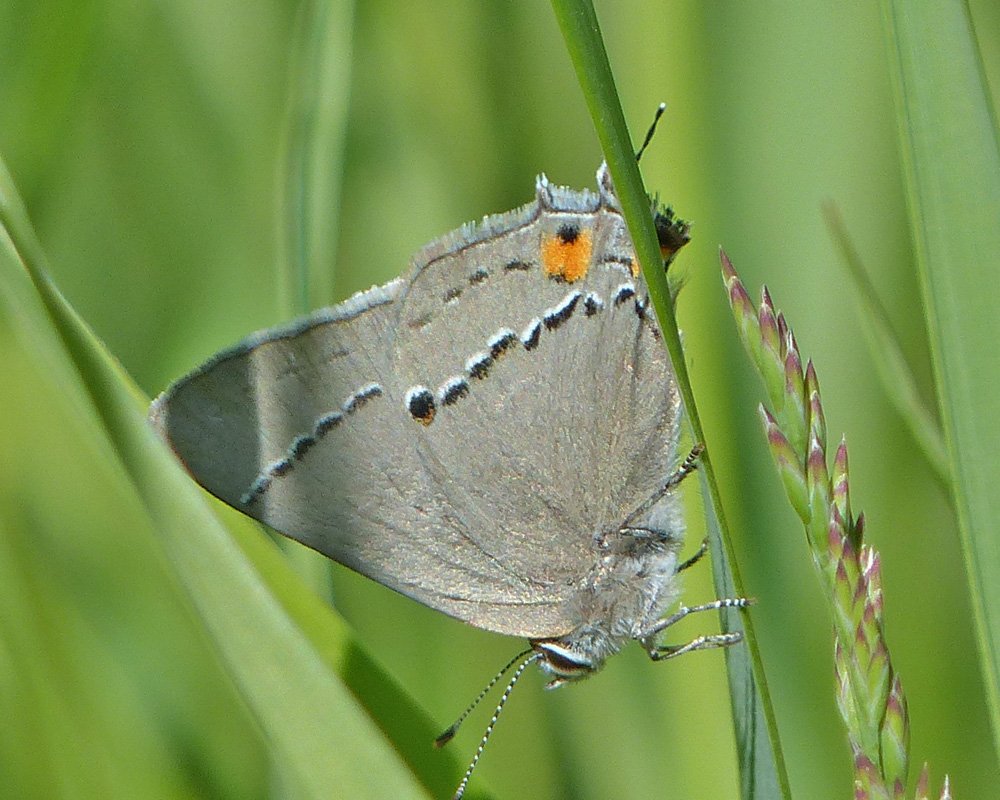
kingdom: Animalia
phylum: Arthropoda
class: Insecta
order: Lepidoptera
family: Lycaenidae
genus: Strymon
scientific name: Strymon melinus
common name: Gray Hairstreak
